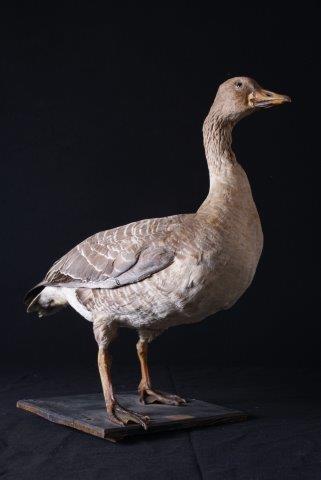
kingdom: Animalia
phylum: Chordata
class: Aves
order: Anseriformes
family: Anatidae
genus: Anser
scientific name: Anser fabalis
